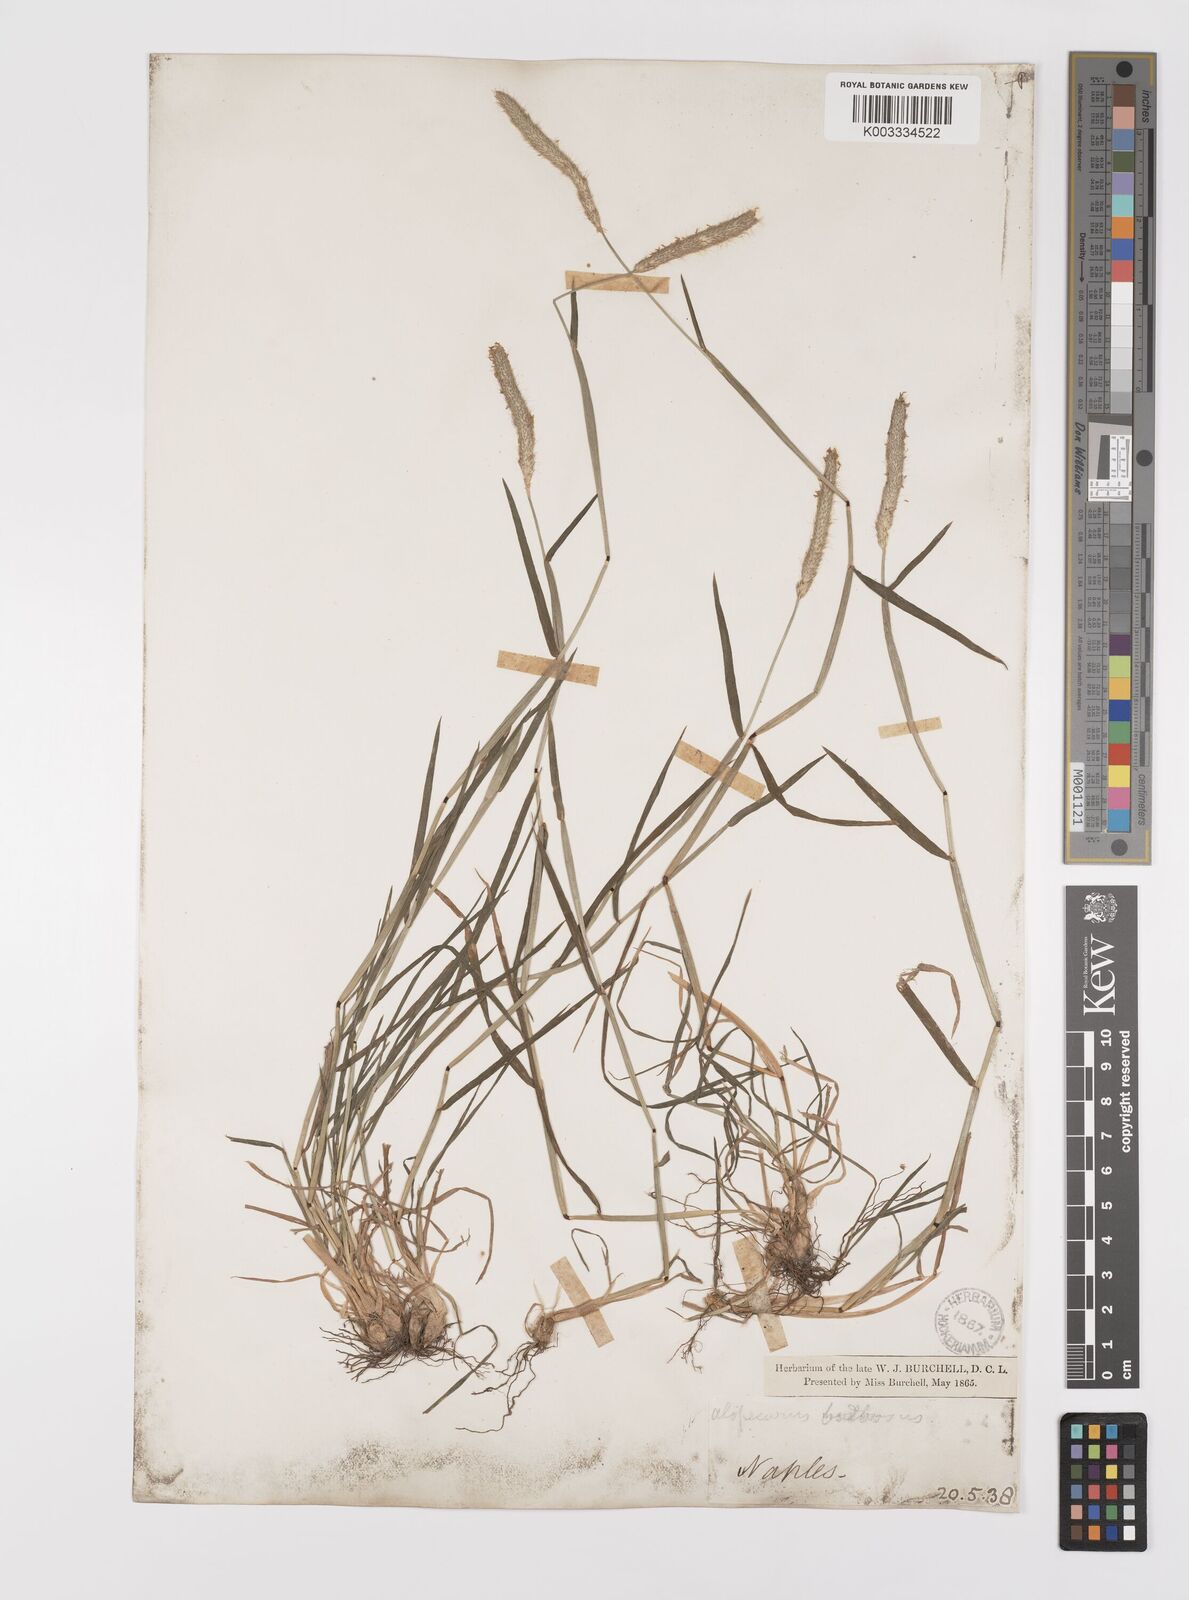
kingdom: Plantae
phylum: Tracheophyta
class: Liliopsida
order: Poales
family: Poaceae
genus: Alopecurus
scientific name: Alopecurus bulbosus
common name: Bulbous foxtail
